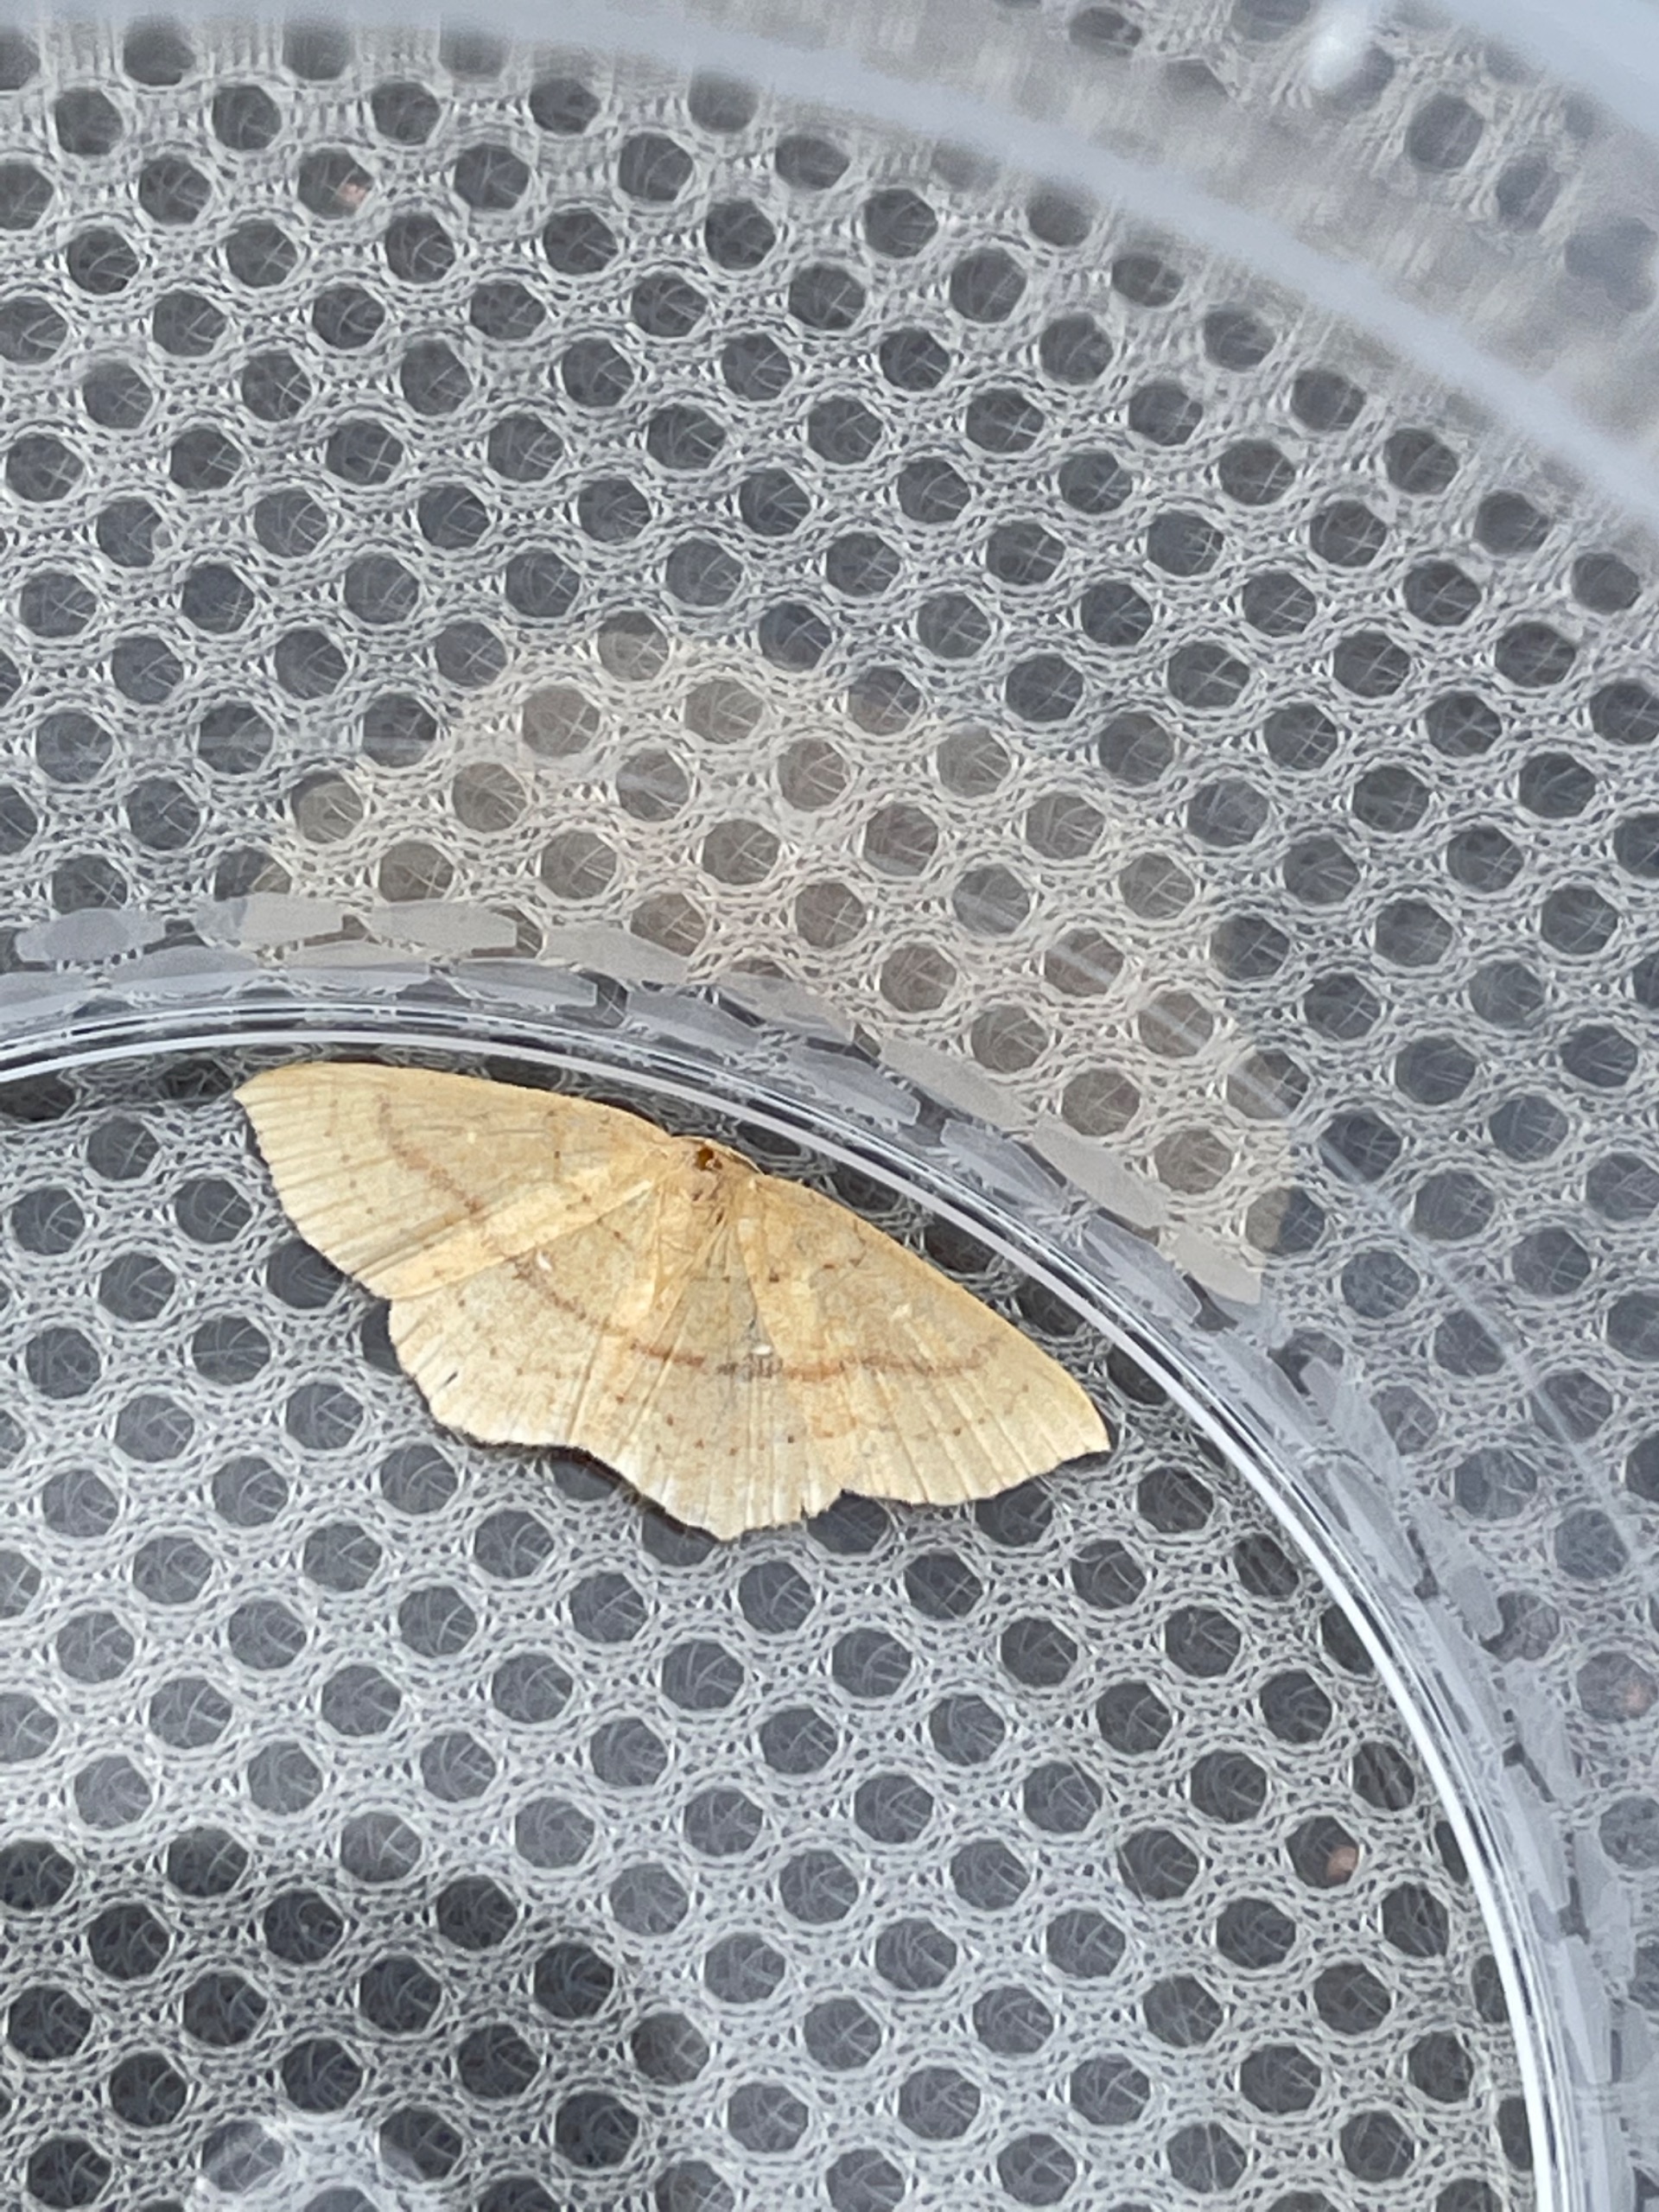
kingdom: Animalia
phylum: Arthropoda
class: Insecta
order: Lepidoptera
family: Geometridae
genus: Cyclophora
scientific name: Cyclophora linearia
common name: Bøge-bæltemåler
